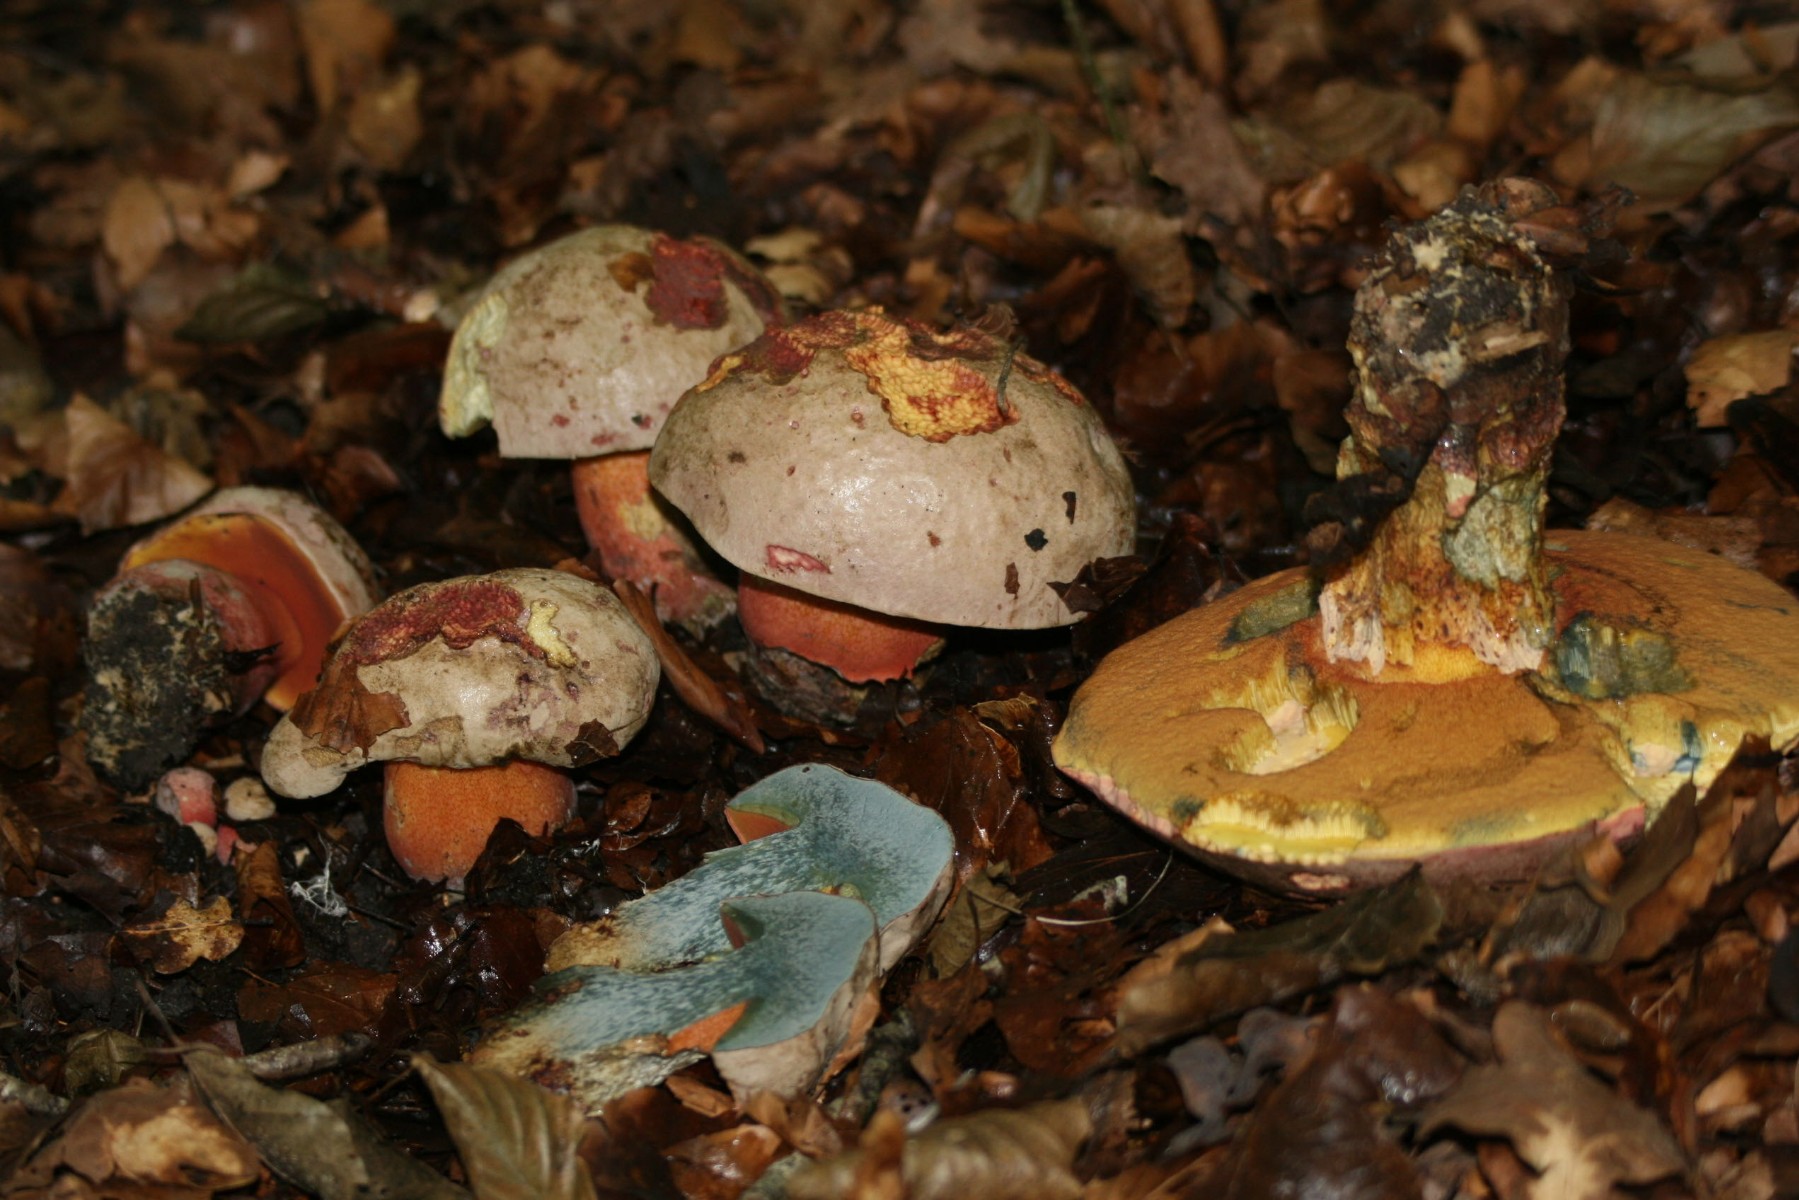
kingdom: Fungi
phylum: Basidiomycota
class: Agaricomycetes
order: Boletales
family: Boletaceae
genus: Rubroboletus
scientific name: Rubroboletus legaliae
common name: djævle-rørhat
